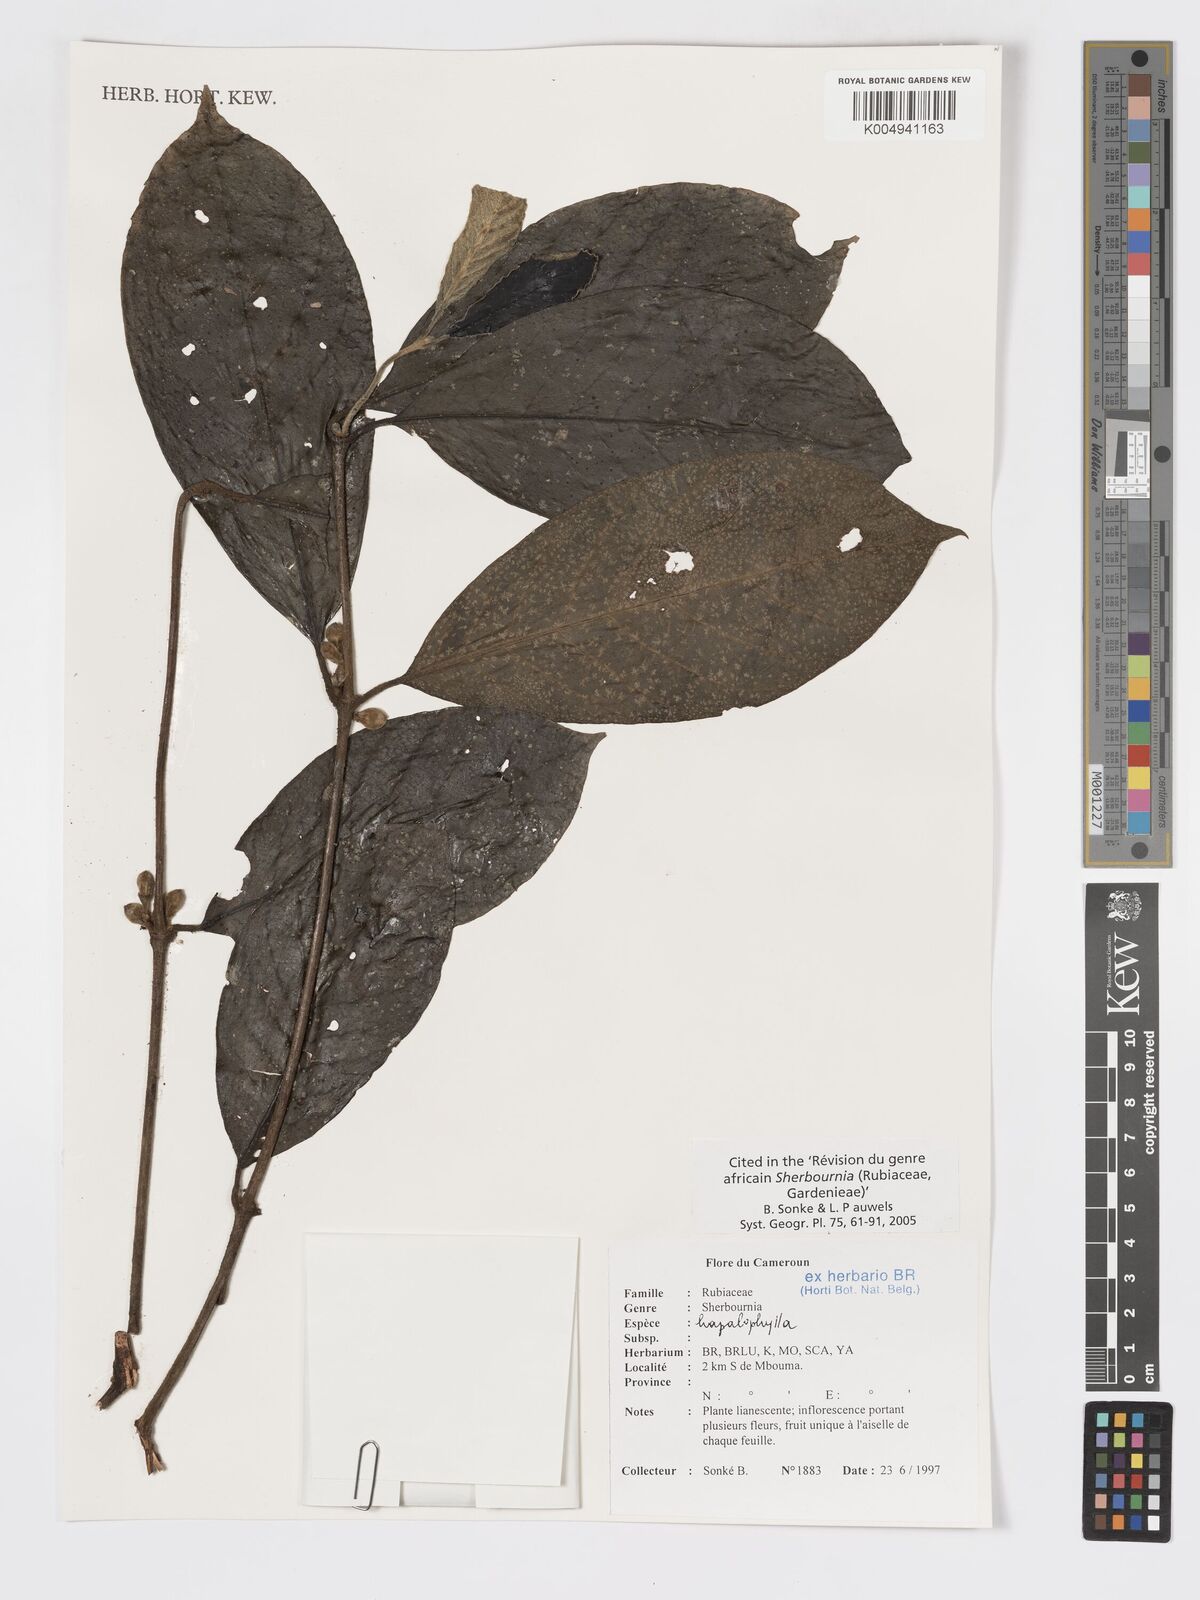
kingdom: Plantae
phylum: Tracheophyta
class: Magnoliopsida
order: Gentianales
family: Rubiaceae
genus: Sherbournia
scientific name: Sherbournia hapalophylla
